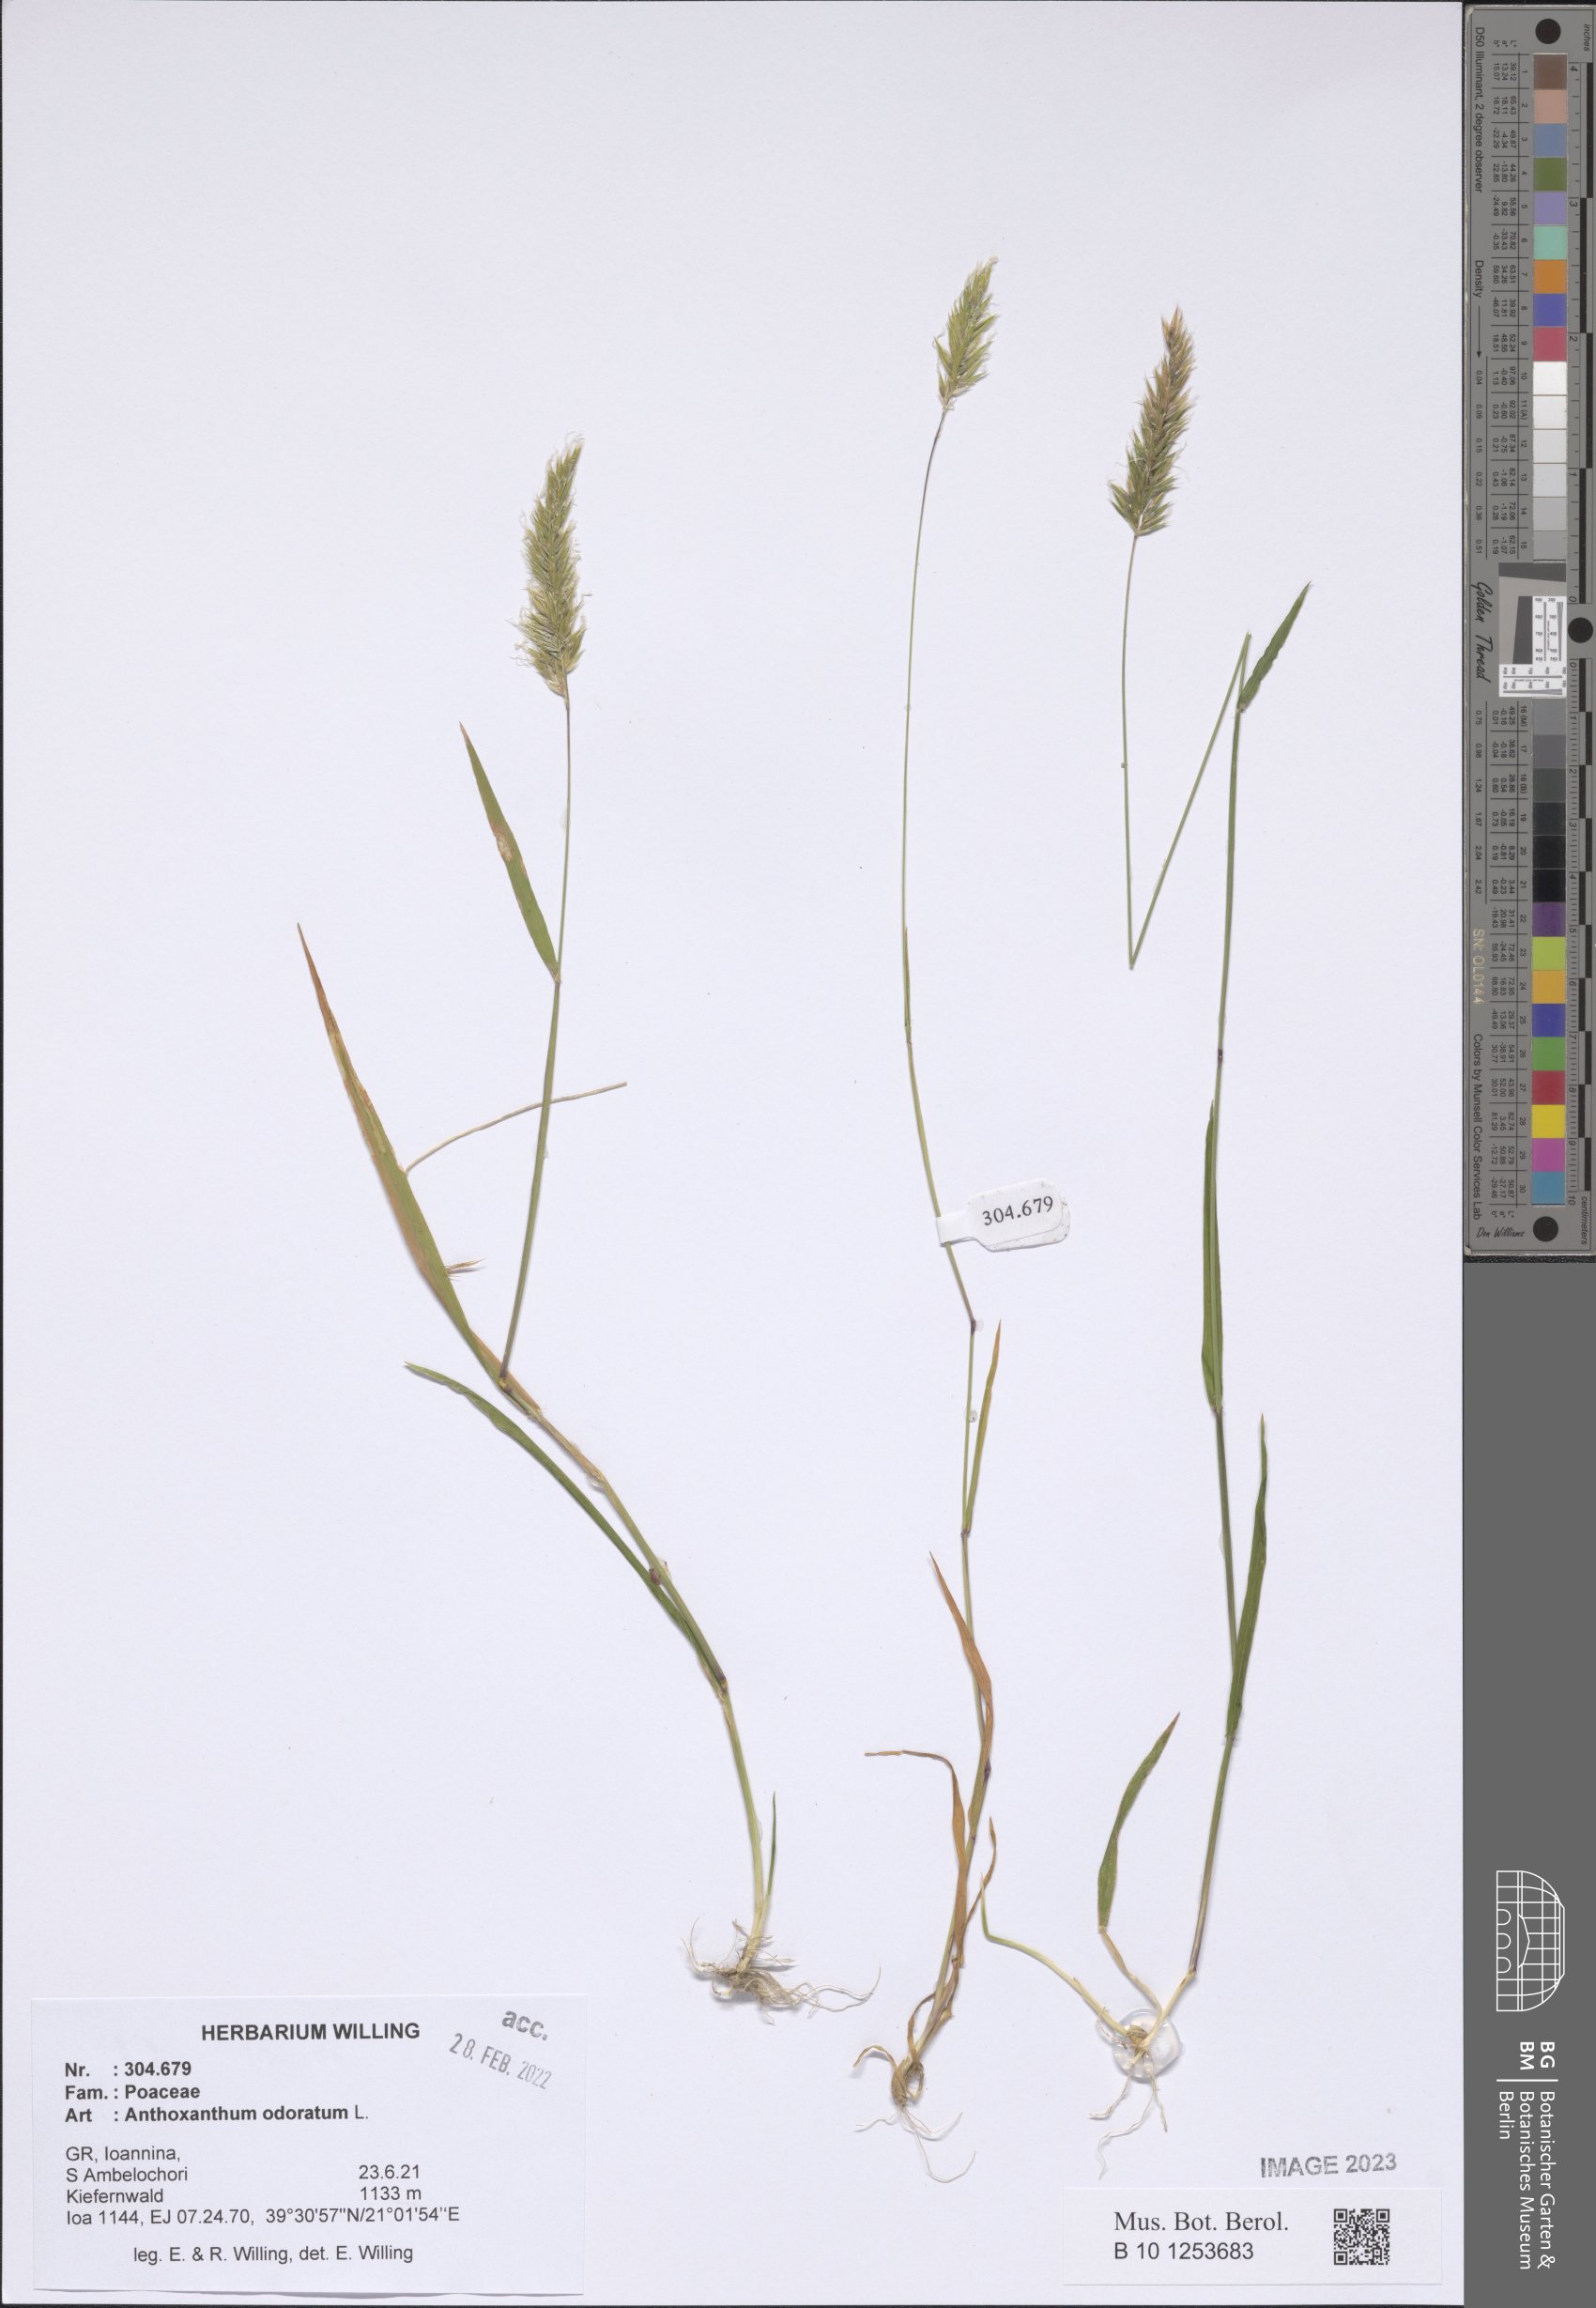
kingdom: Plantae
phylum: Tracheophyta
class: Liliopsida
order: Poales
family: Poaceae
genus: Anthoxanthum
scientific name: Anthoxanthum odoratum
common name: Sweet vernalgrass
